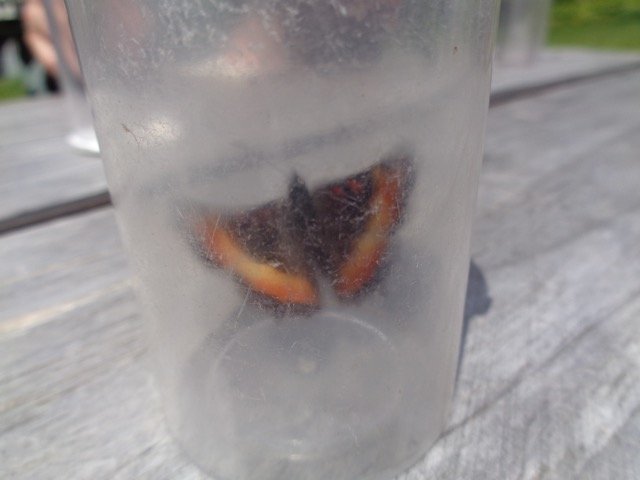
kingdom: Animalia
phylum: Arthropoda
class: Insecta
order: Lepidoptera
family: Nymphalidae
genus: Aglais
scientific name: Aglais milberti
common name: Milbert's Tortoiseshell
